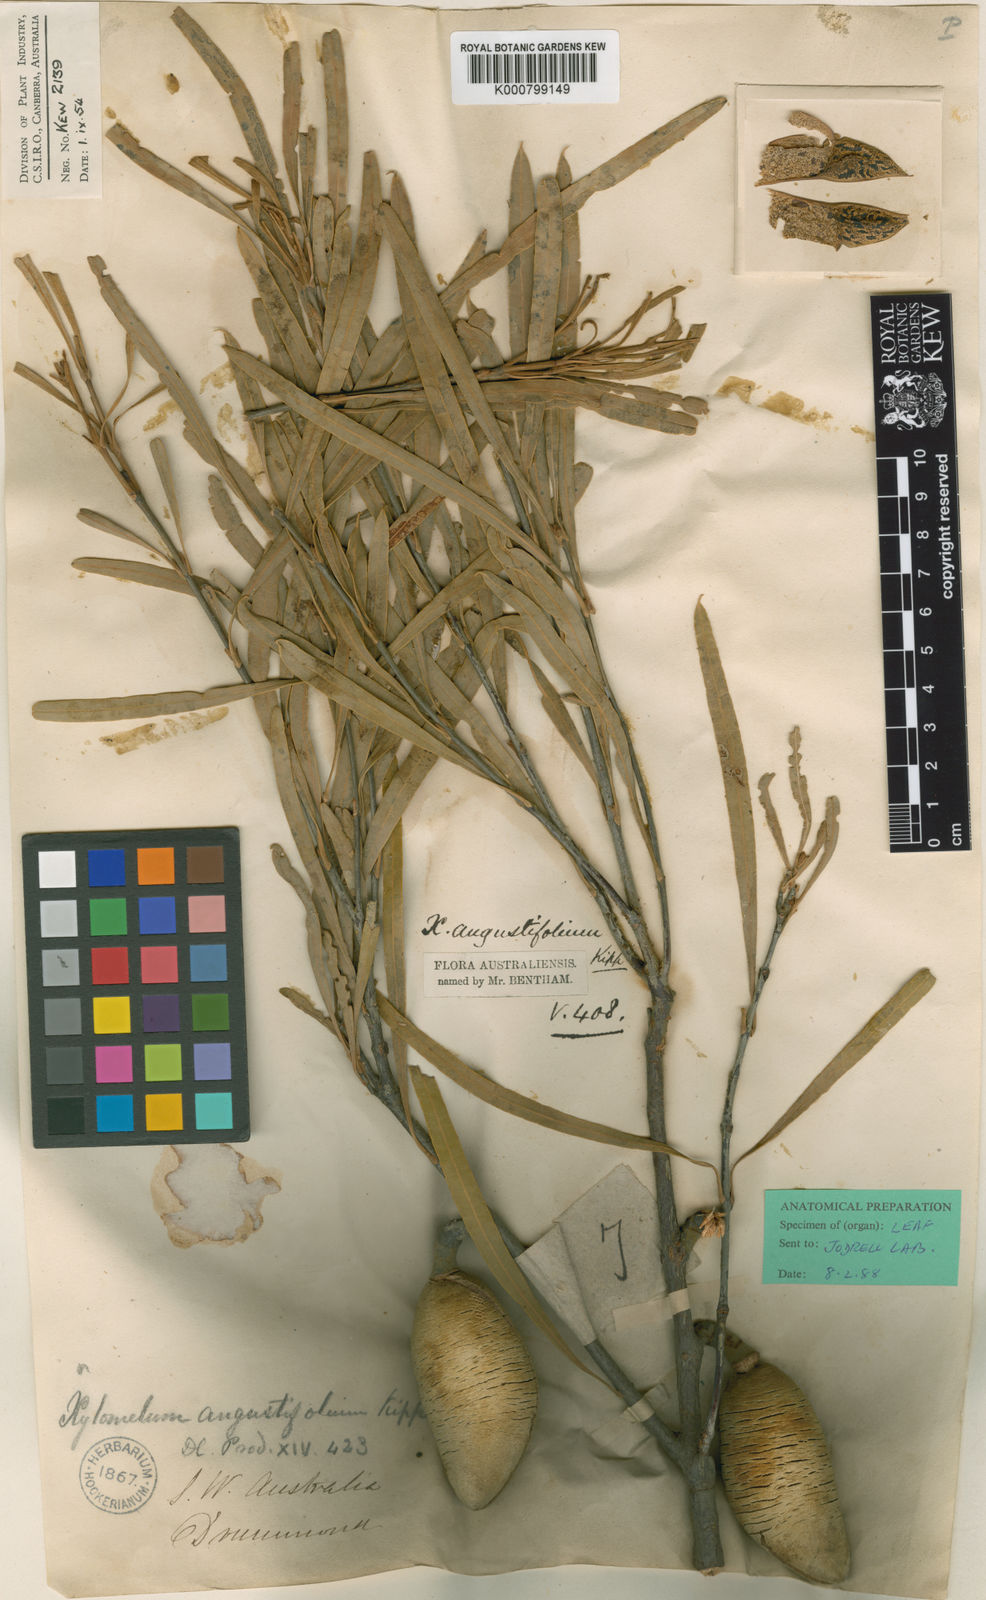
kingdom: Plantae
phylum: Tracheophyta
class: Magnoliopsida
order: Proteales
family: Proteaceae
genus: Xylomelum
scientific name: Xylomelum angustifolium
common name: Sandplain woody-pear
